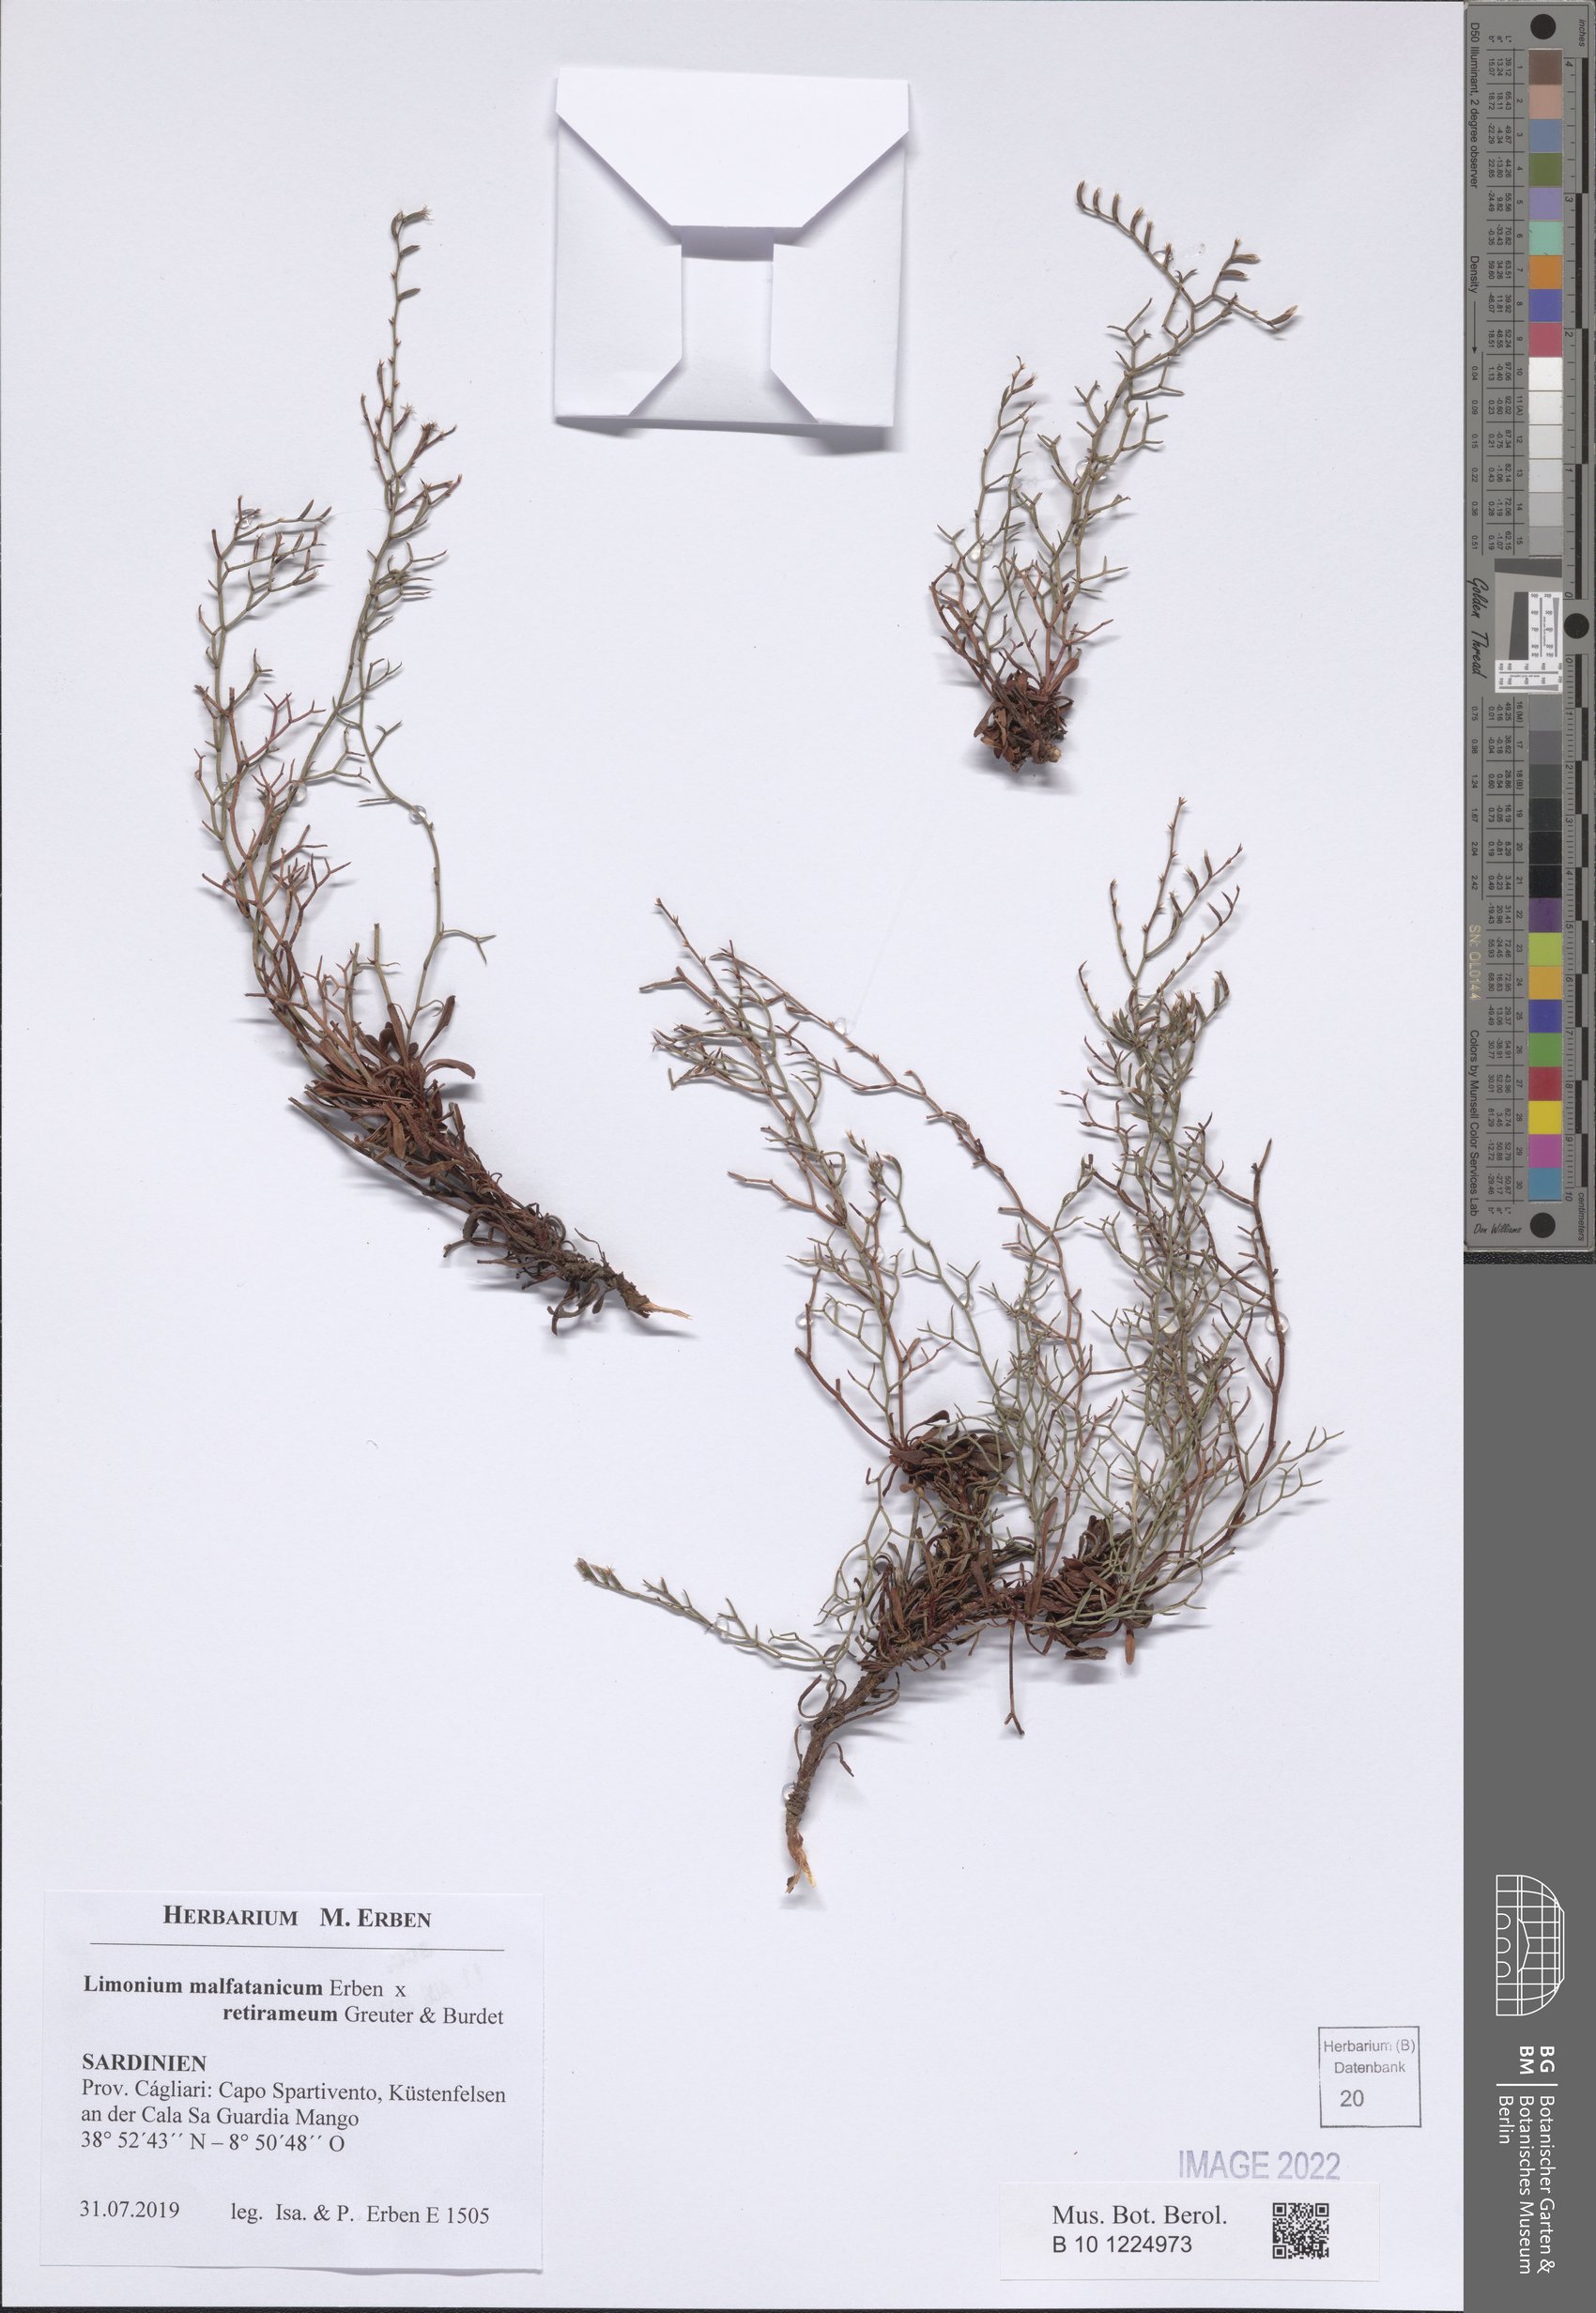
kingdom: Plantae
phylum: Tracheophyta
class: Magnoliopsida
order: Caryophyllales
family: Plumbaginaceae
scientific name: Plumbaginaceae
